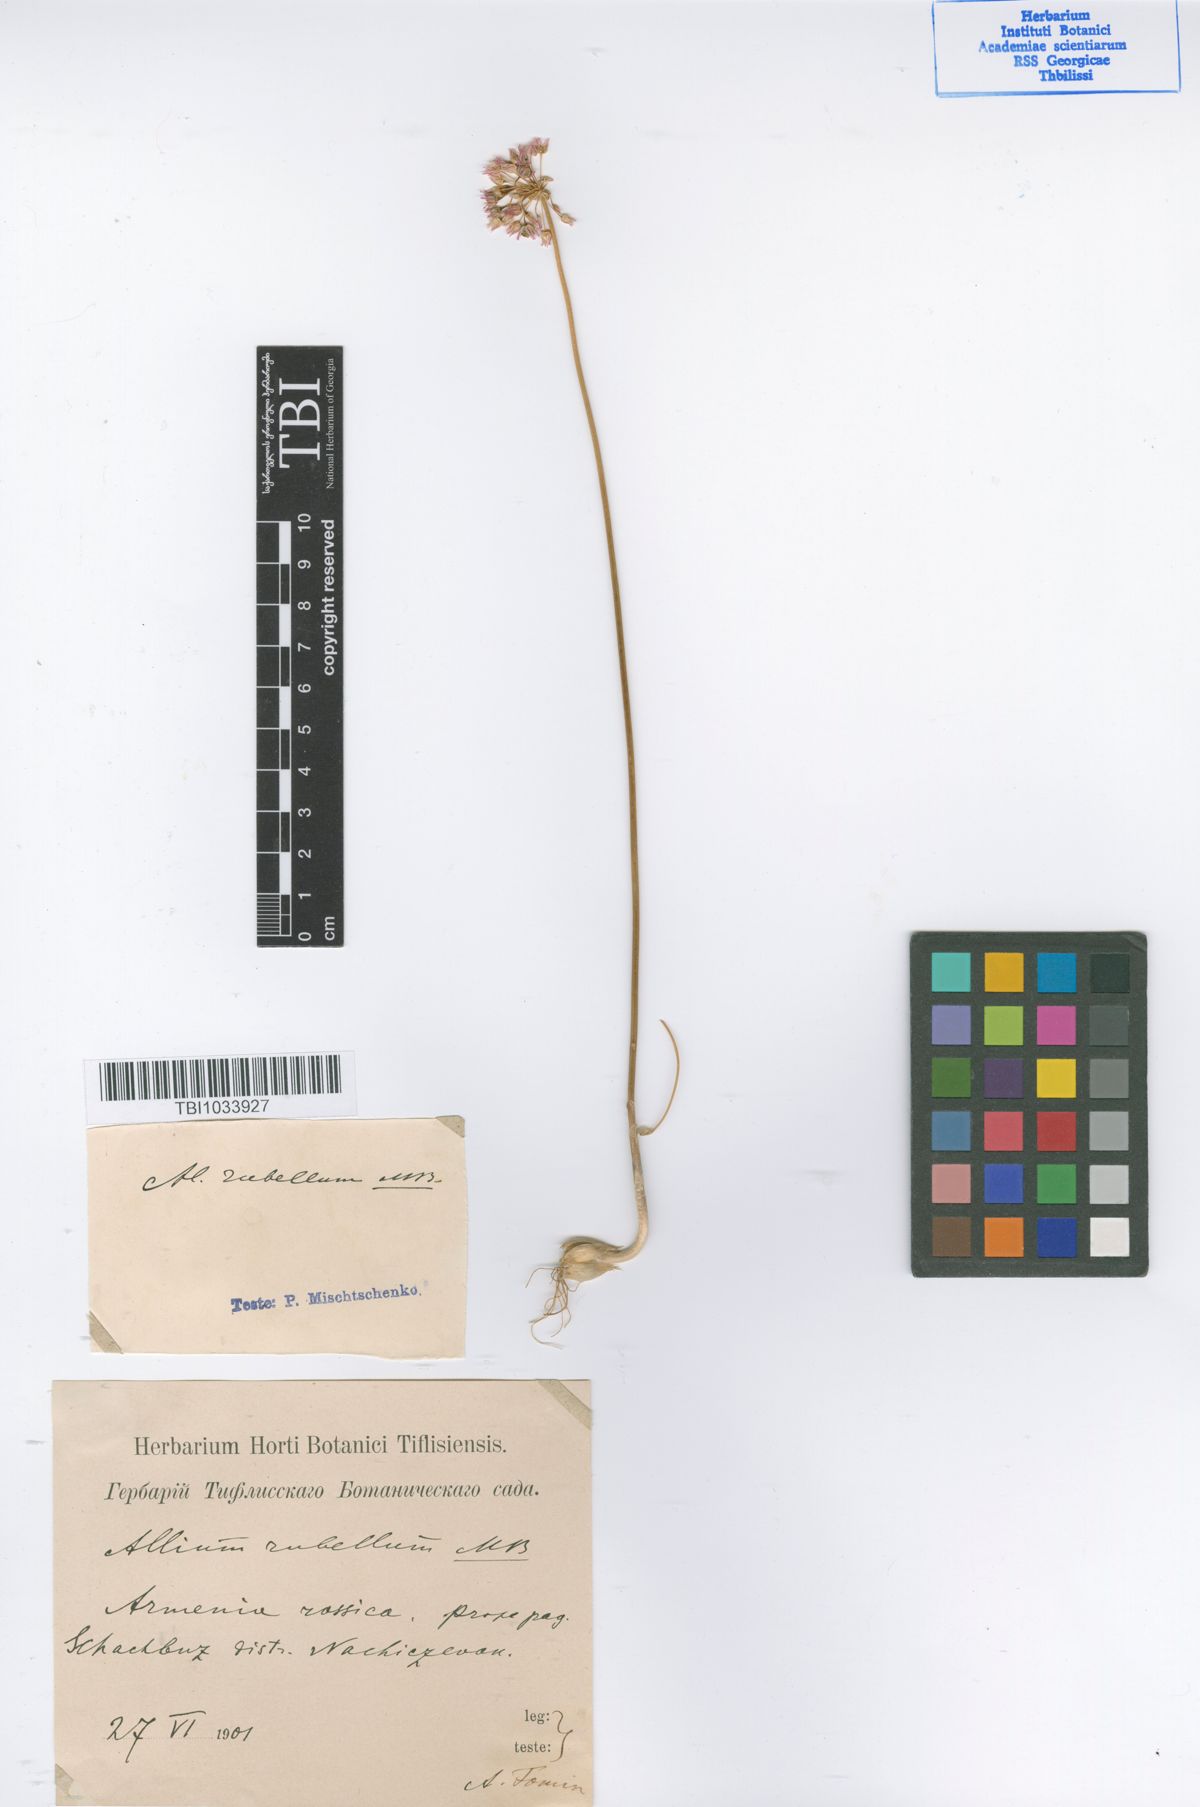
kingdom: Plantae
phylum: Tracheophyta
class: Liliopsida
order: Asparagales
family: Amaryllidaceae
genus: Allium
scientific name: Allium rubellum
